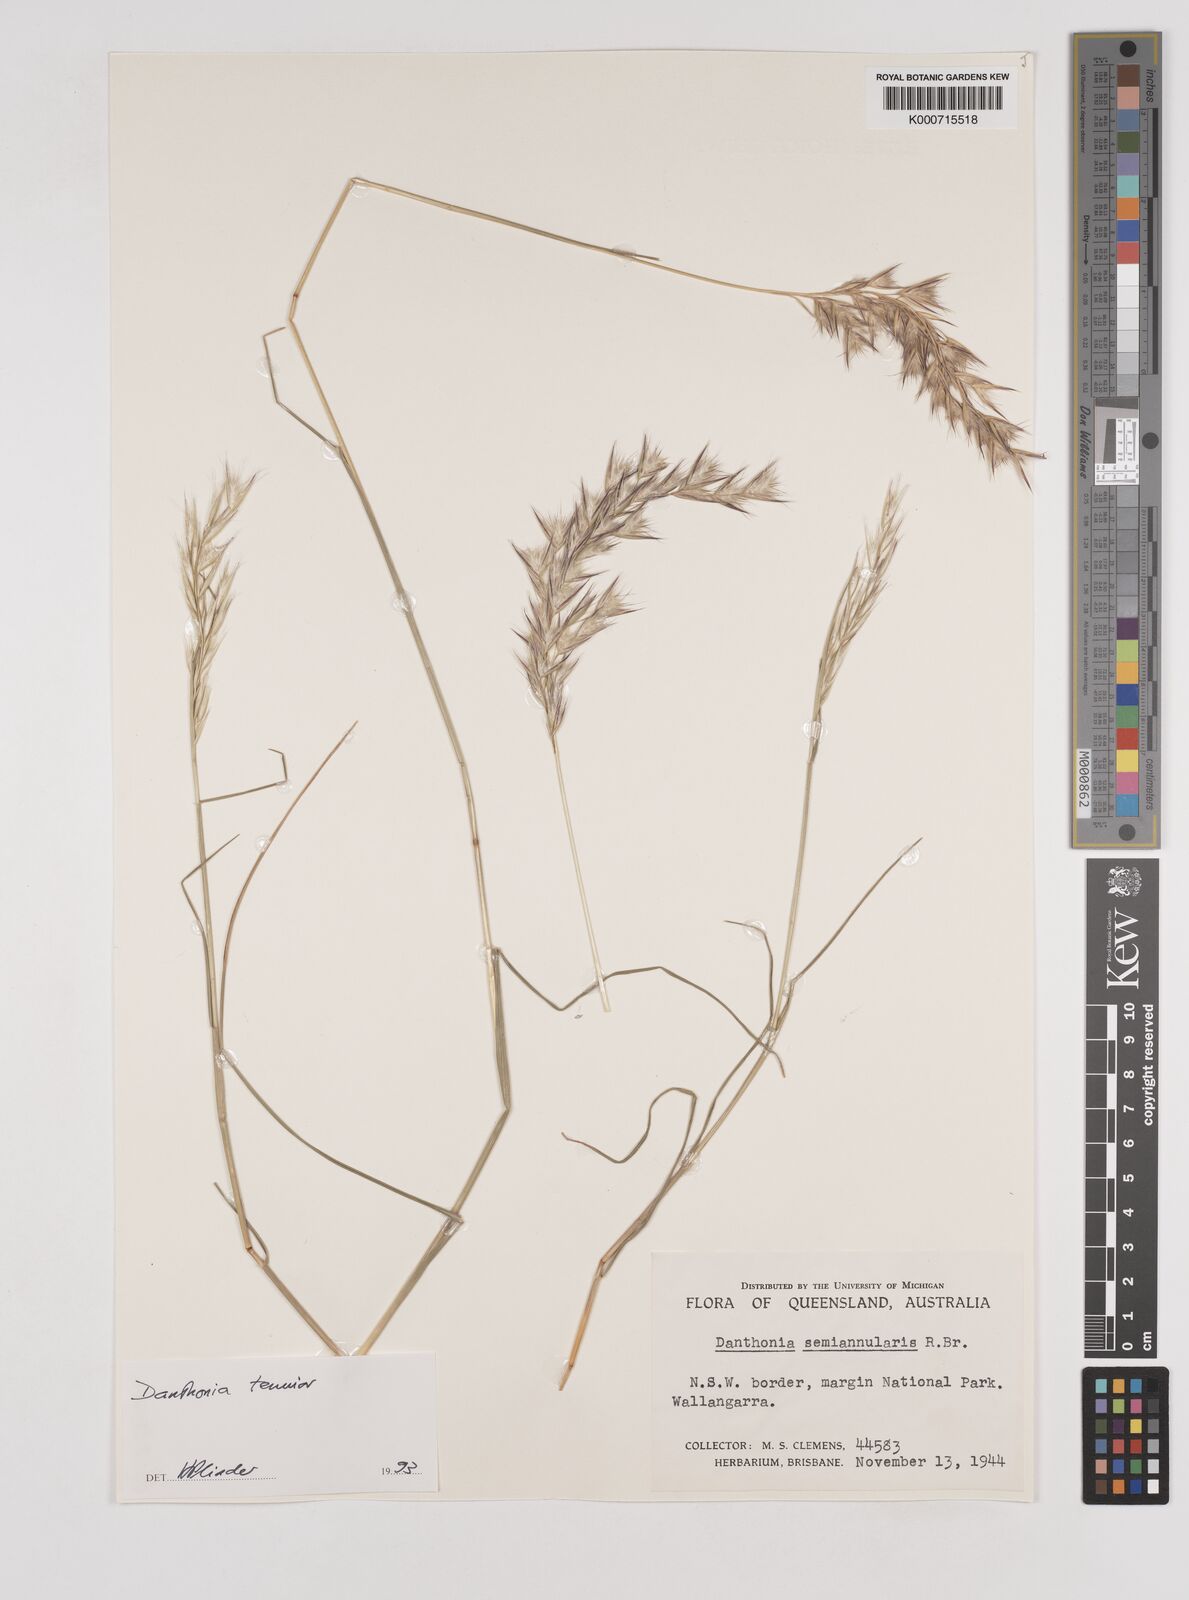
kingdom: Plantae
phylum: Tracheophyta
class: Liliopsida
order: Poales
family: Poaceae
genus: Rytidosperma
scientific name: Rytidosperma tenuius
